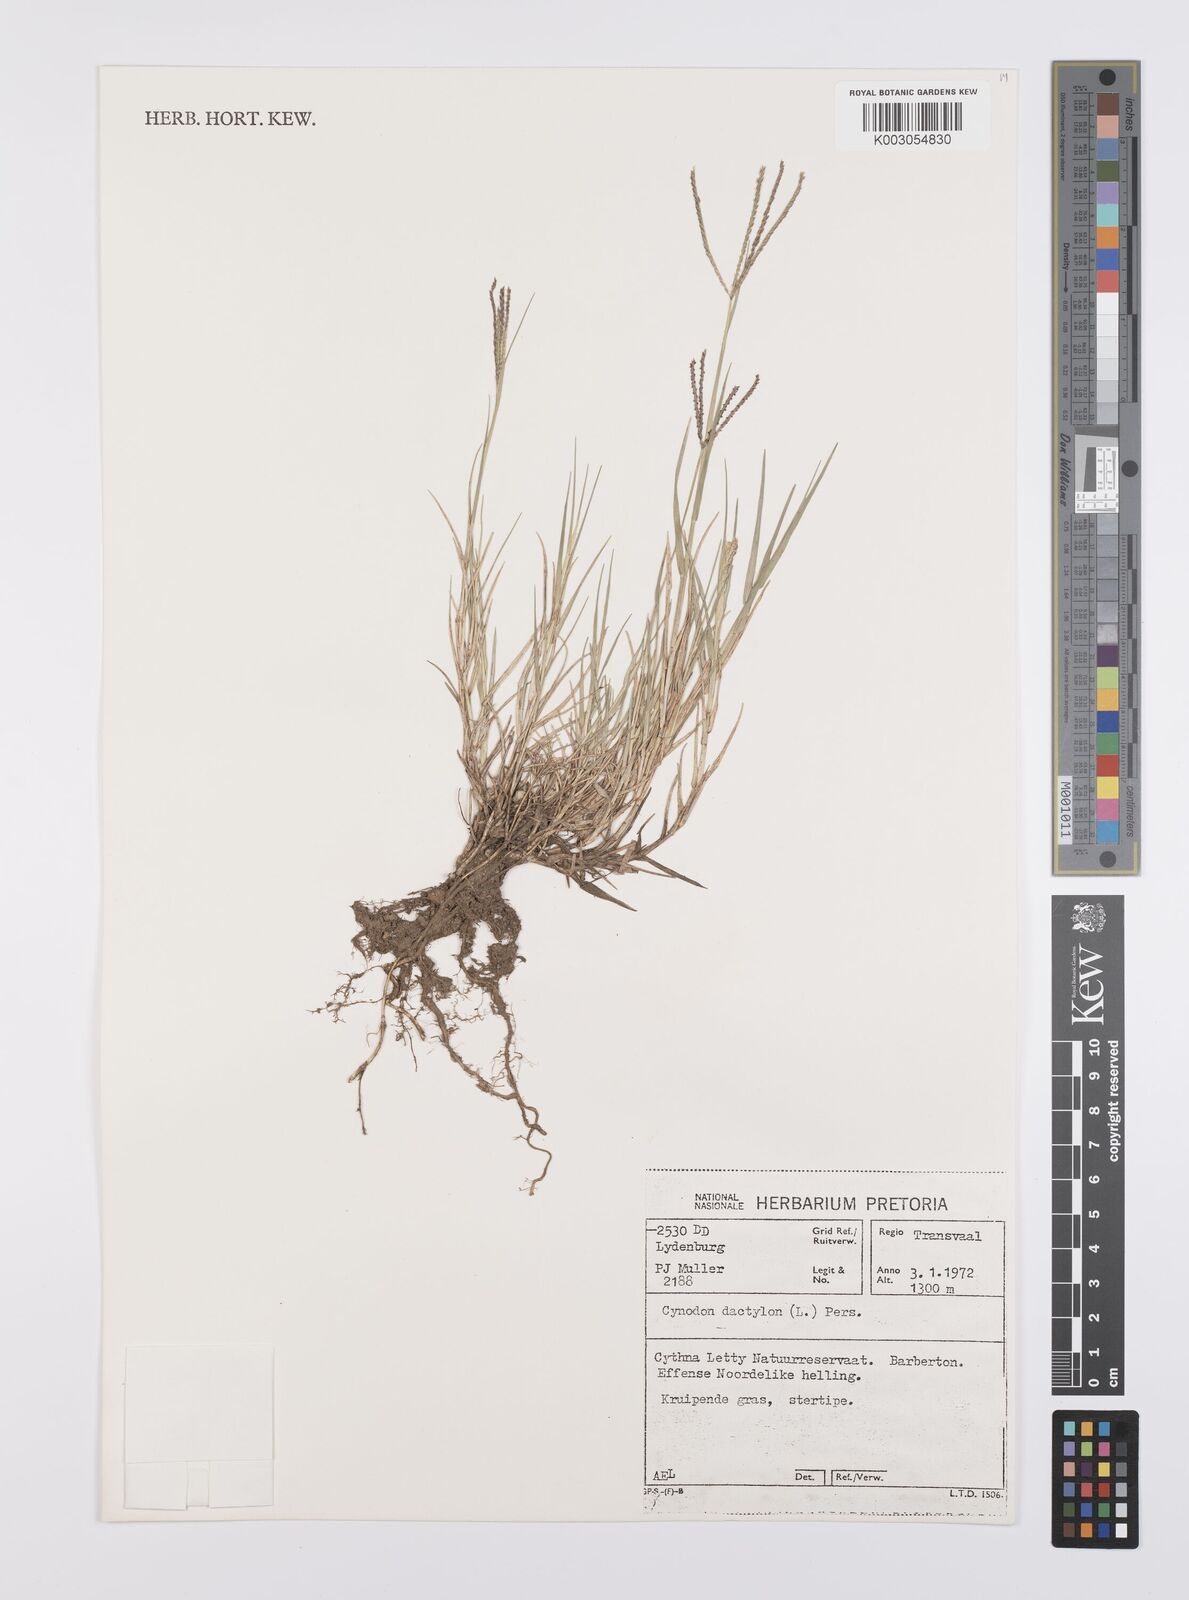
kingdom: Plantae
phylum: Tracheophyta
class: Liliopsida
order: Poales
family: Poaceae
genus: Cynodon
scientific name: Cynodon dactylon
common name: Bermuda grass
